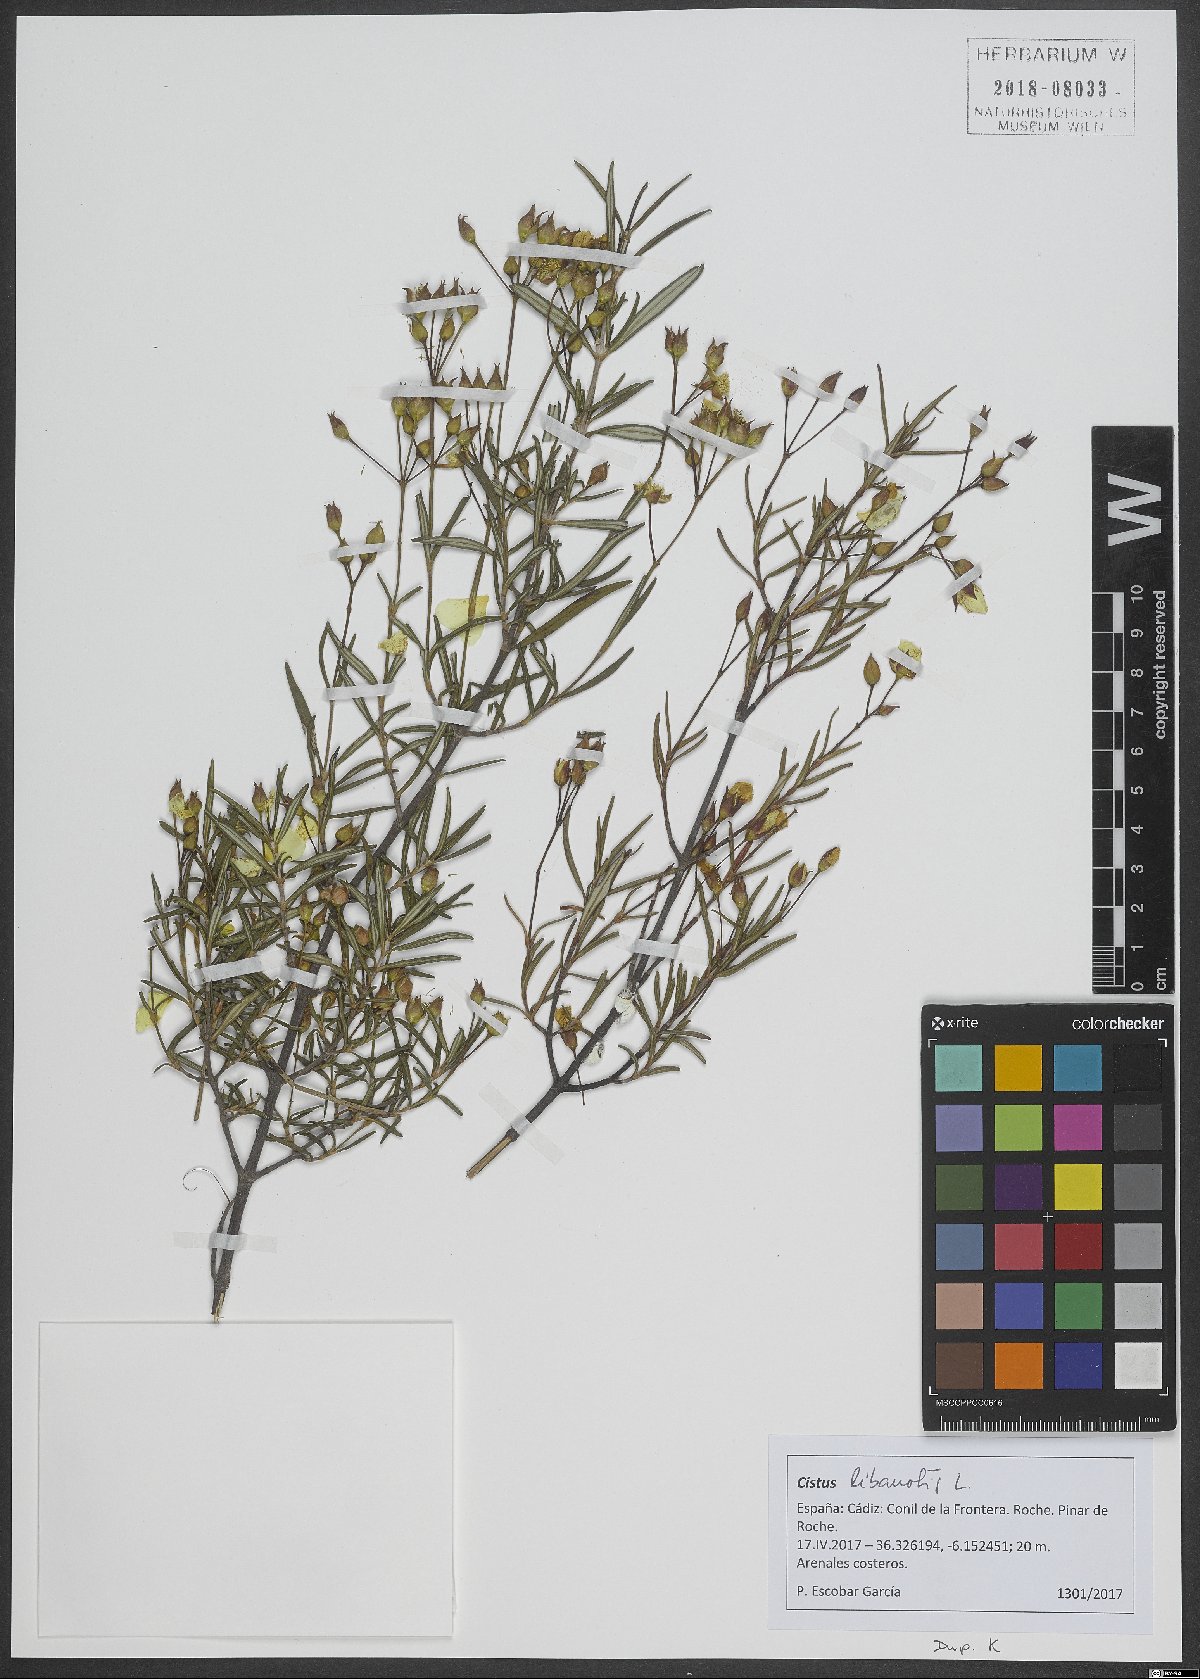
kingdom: Plantae
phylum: Tracheophyta
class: Magnoliopsida
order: Malvales
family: Cistaceae
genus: Cistus
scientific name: Cistus libanotis
